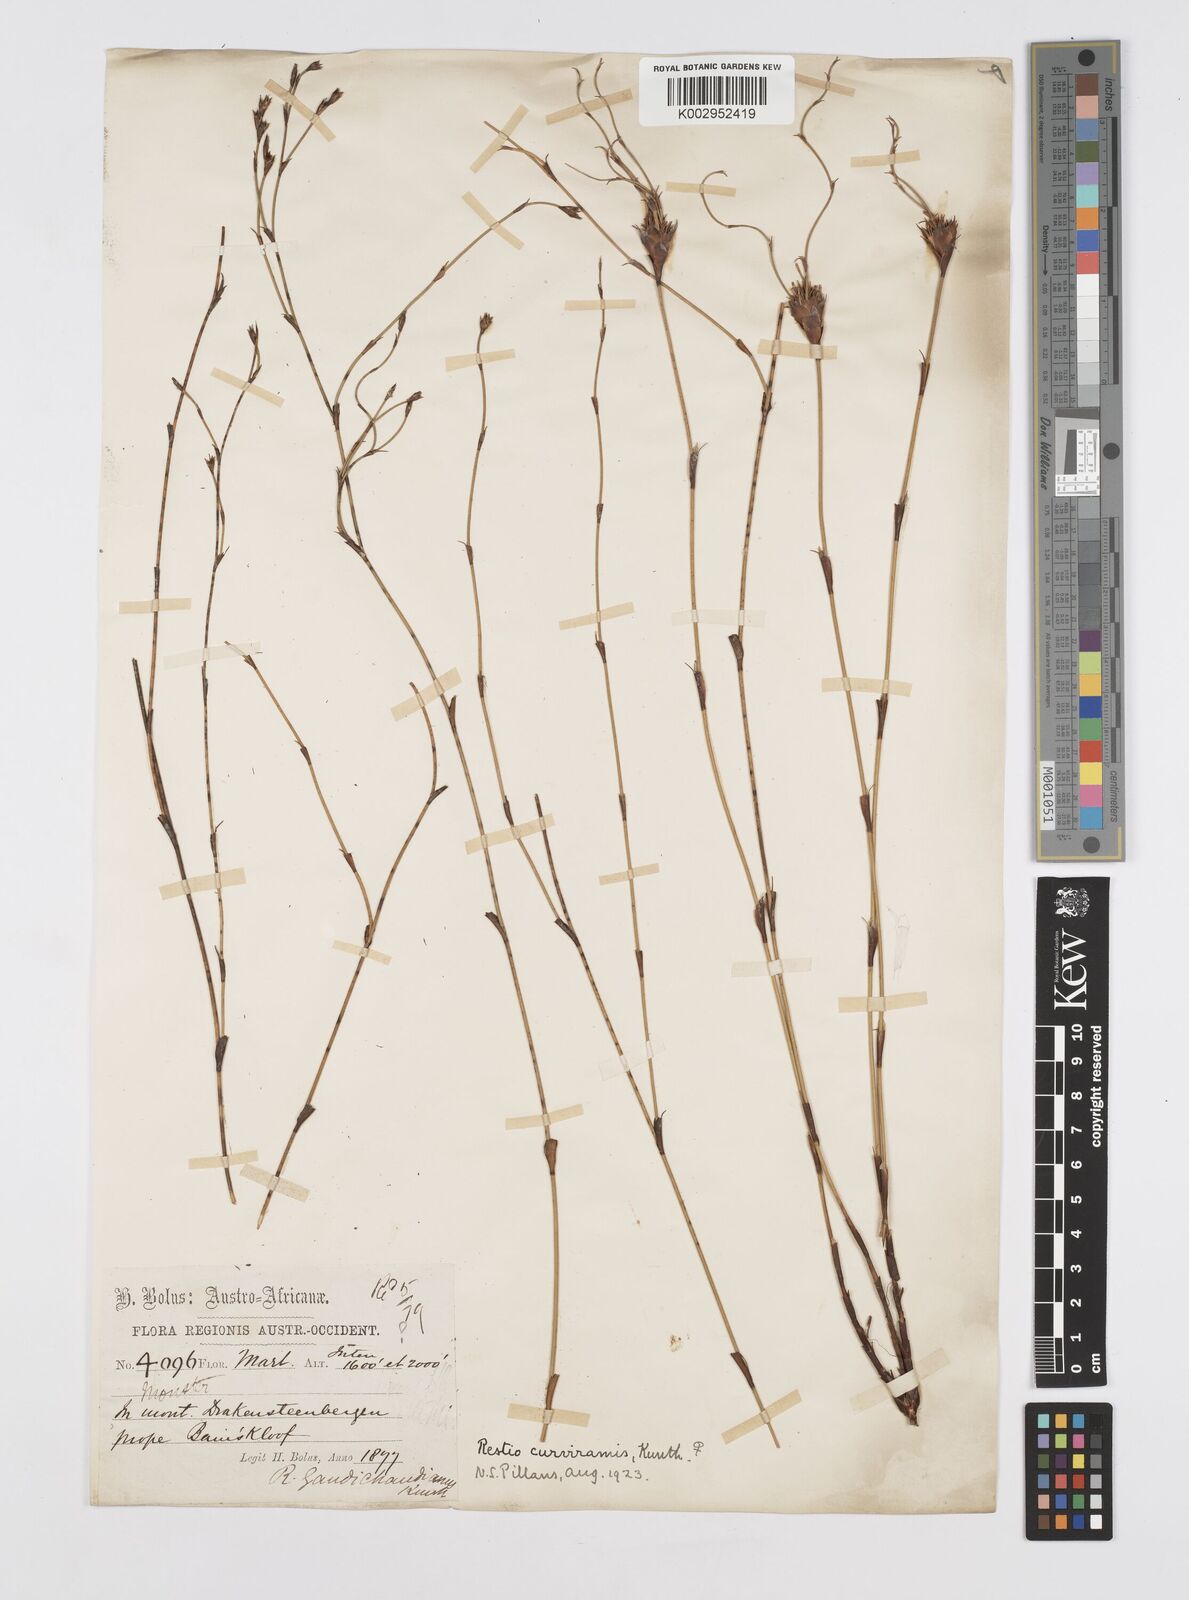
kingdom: Plantae
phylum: Tracheophyta
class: Liliopsida
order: Poales
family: Restionaceae
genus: Restio
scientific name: Restio curviramis
